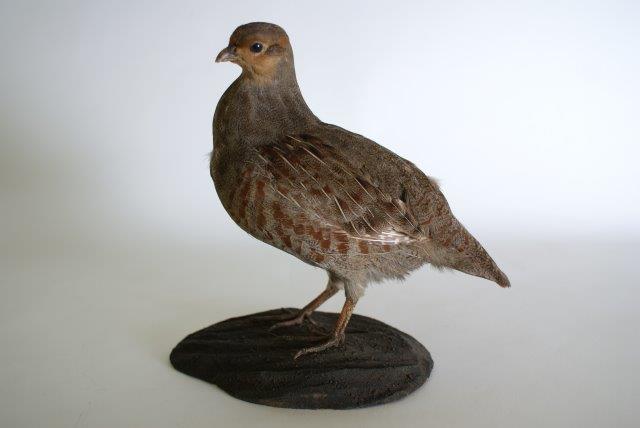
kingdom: Animalia
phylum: Chordata
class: Aves
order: Galliformes
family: Phasianidae
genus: Perdix
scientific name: Perdix perdix
